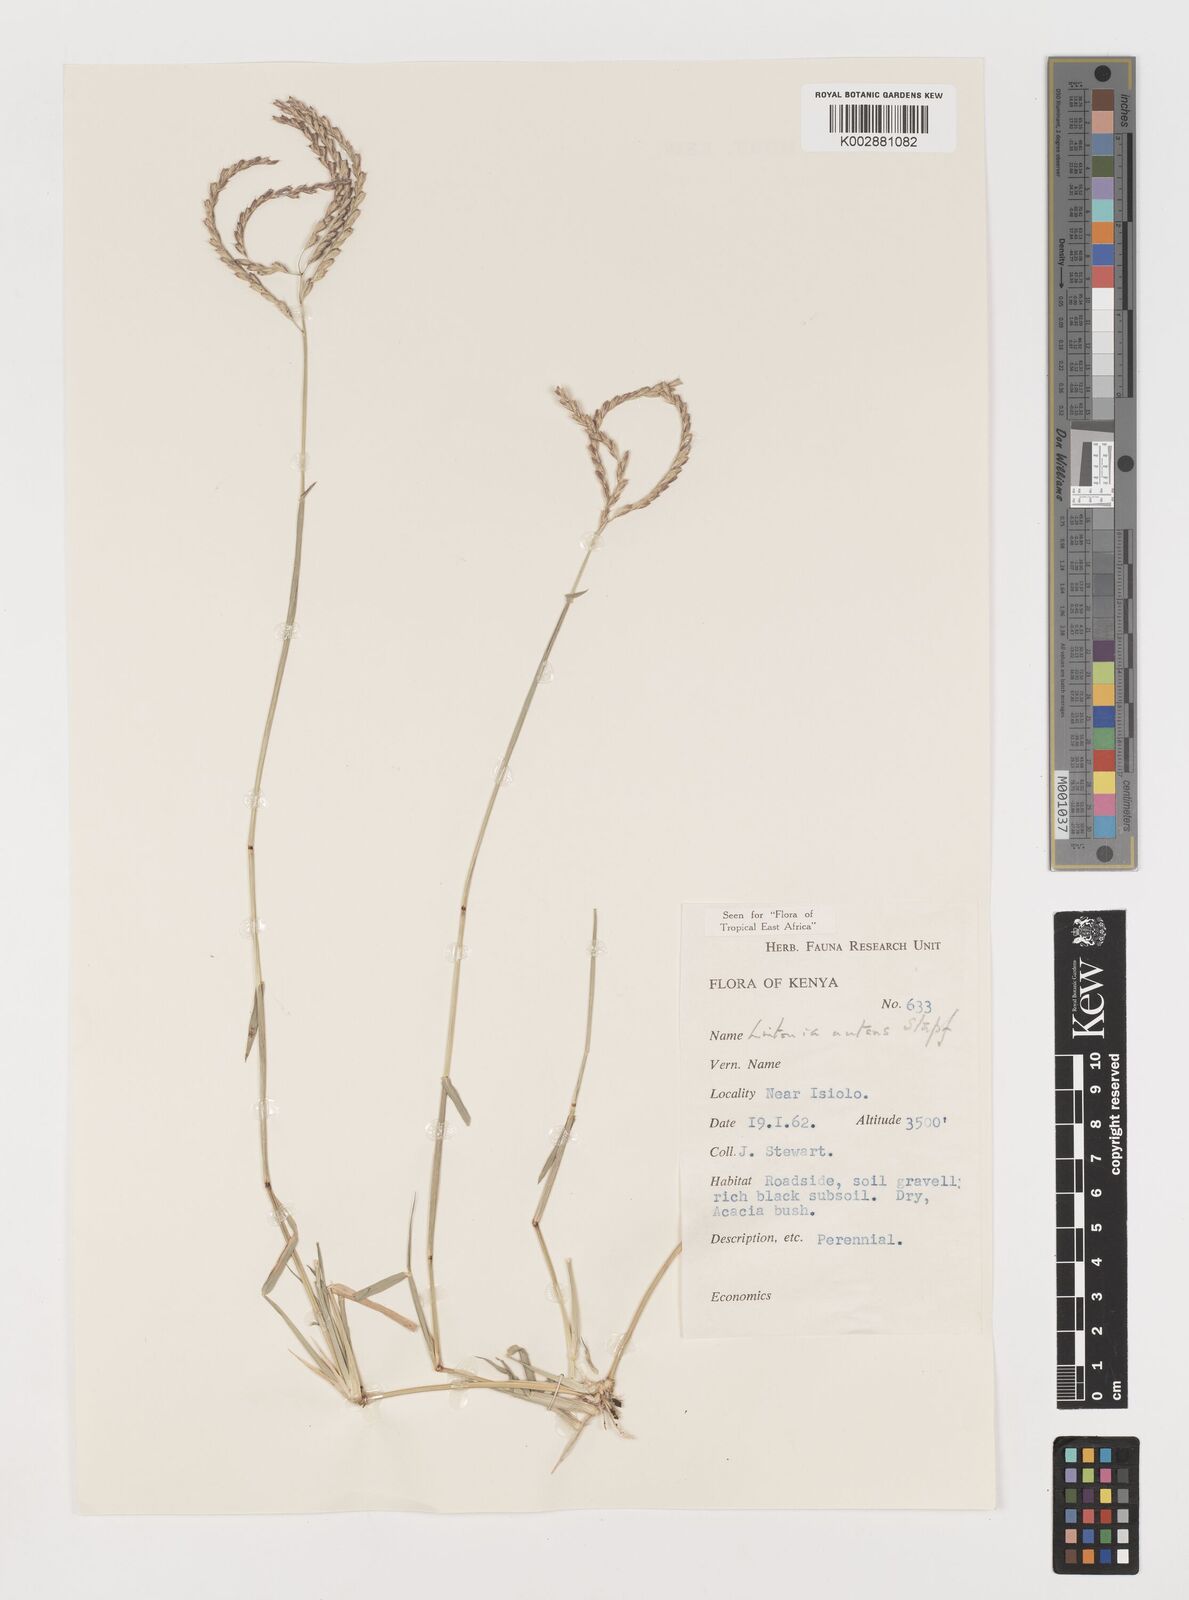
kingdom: Plantae
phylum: Tracheophyta
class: Liliopsida
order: Poales
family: Poaceae
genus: Chloris
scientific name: Chloris nutans
